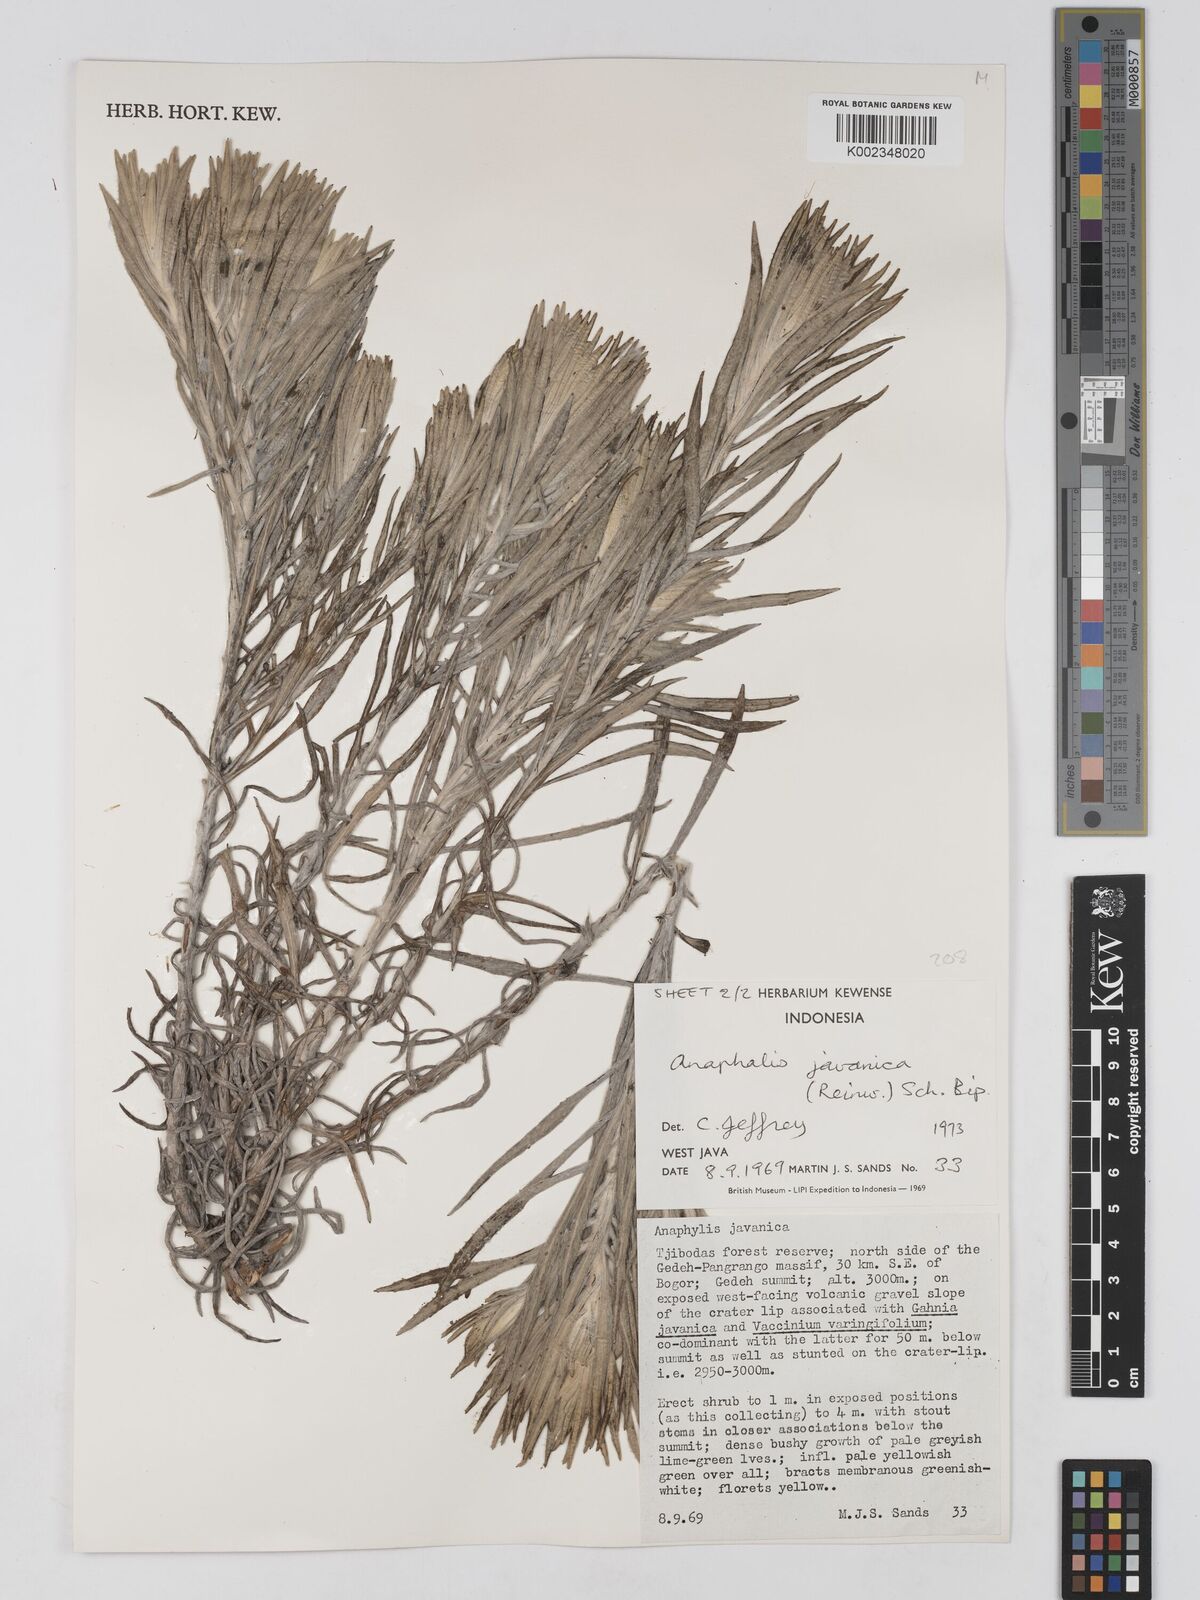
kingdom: Plantae
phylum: Tracheophyta
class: Magnoliopsida
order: Asterales
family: Asteraceae
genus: Anaphalis
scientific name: Anaphalis javanica
